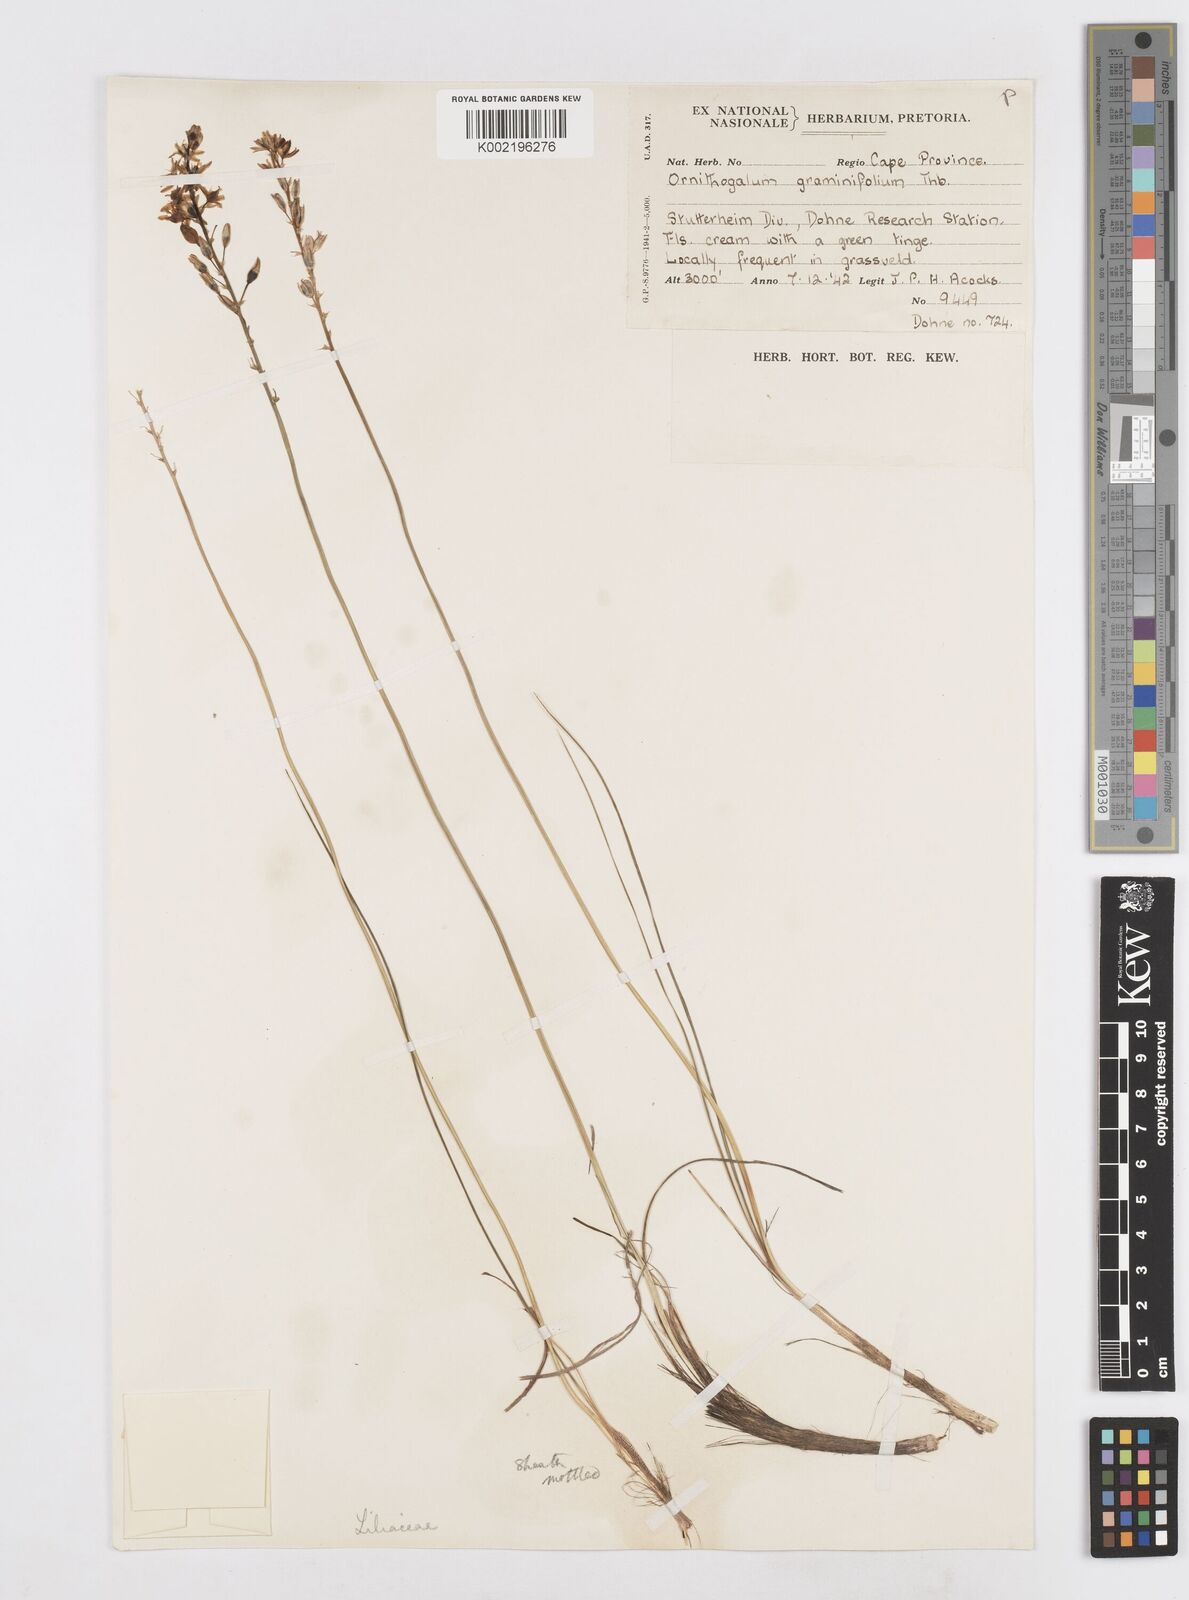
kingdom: Plantae
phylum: Tracheophyta
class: Liliopsida
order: Asparagales
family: Asparagaceae
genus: Ornithogalum
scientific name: Ornithogalum graminifolium
